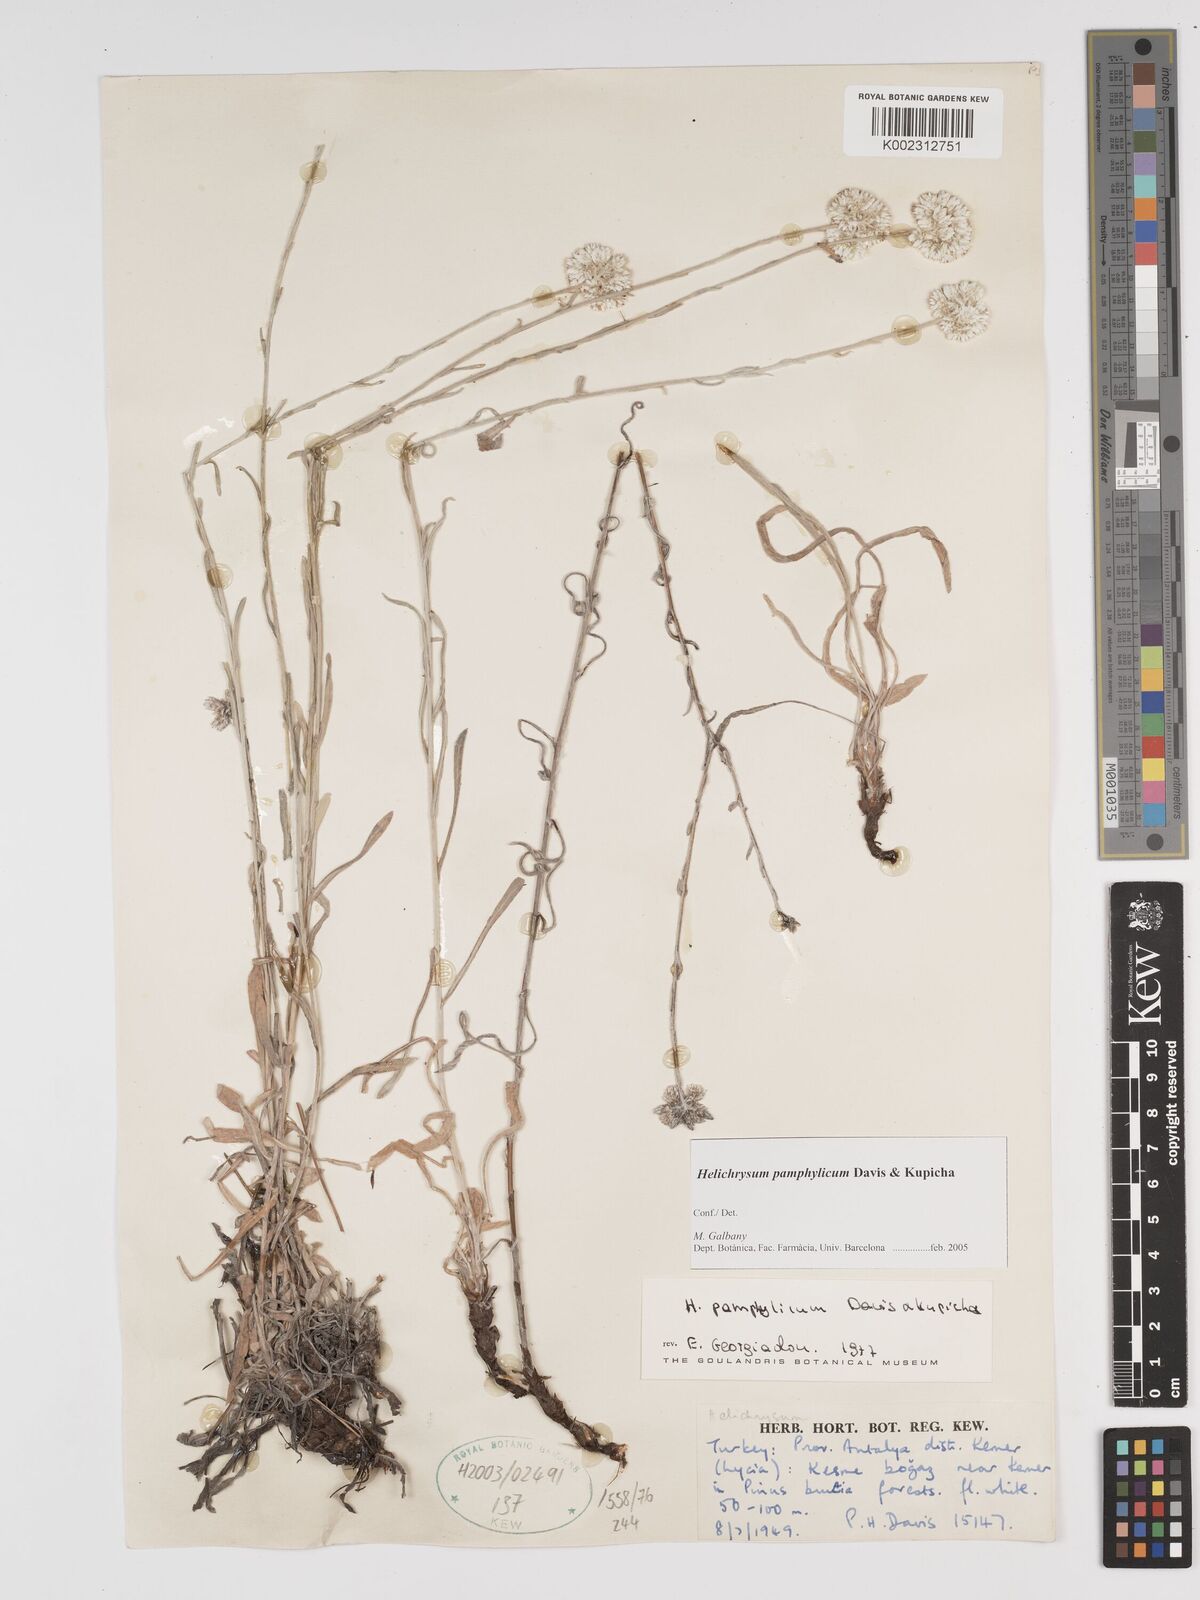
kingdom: Plantae
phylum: Tracheophyta
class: Magnoliopsida
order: Asterales
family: Asteraceae
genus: Helichrysum
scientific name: Helichrysum pamphylicum
